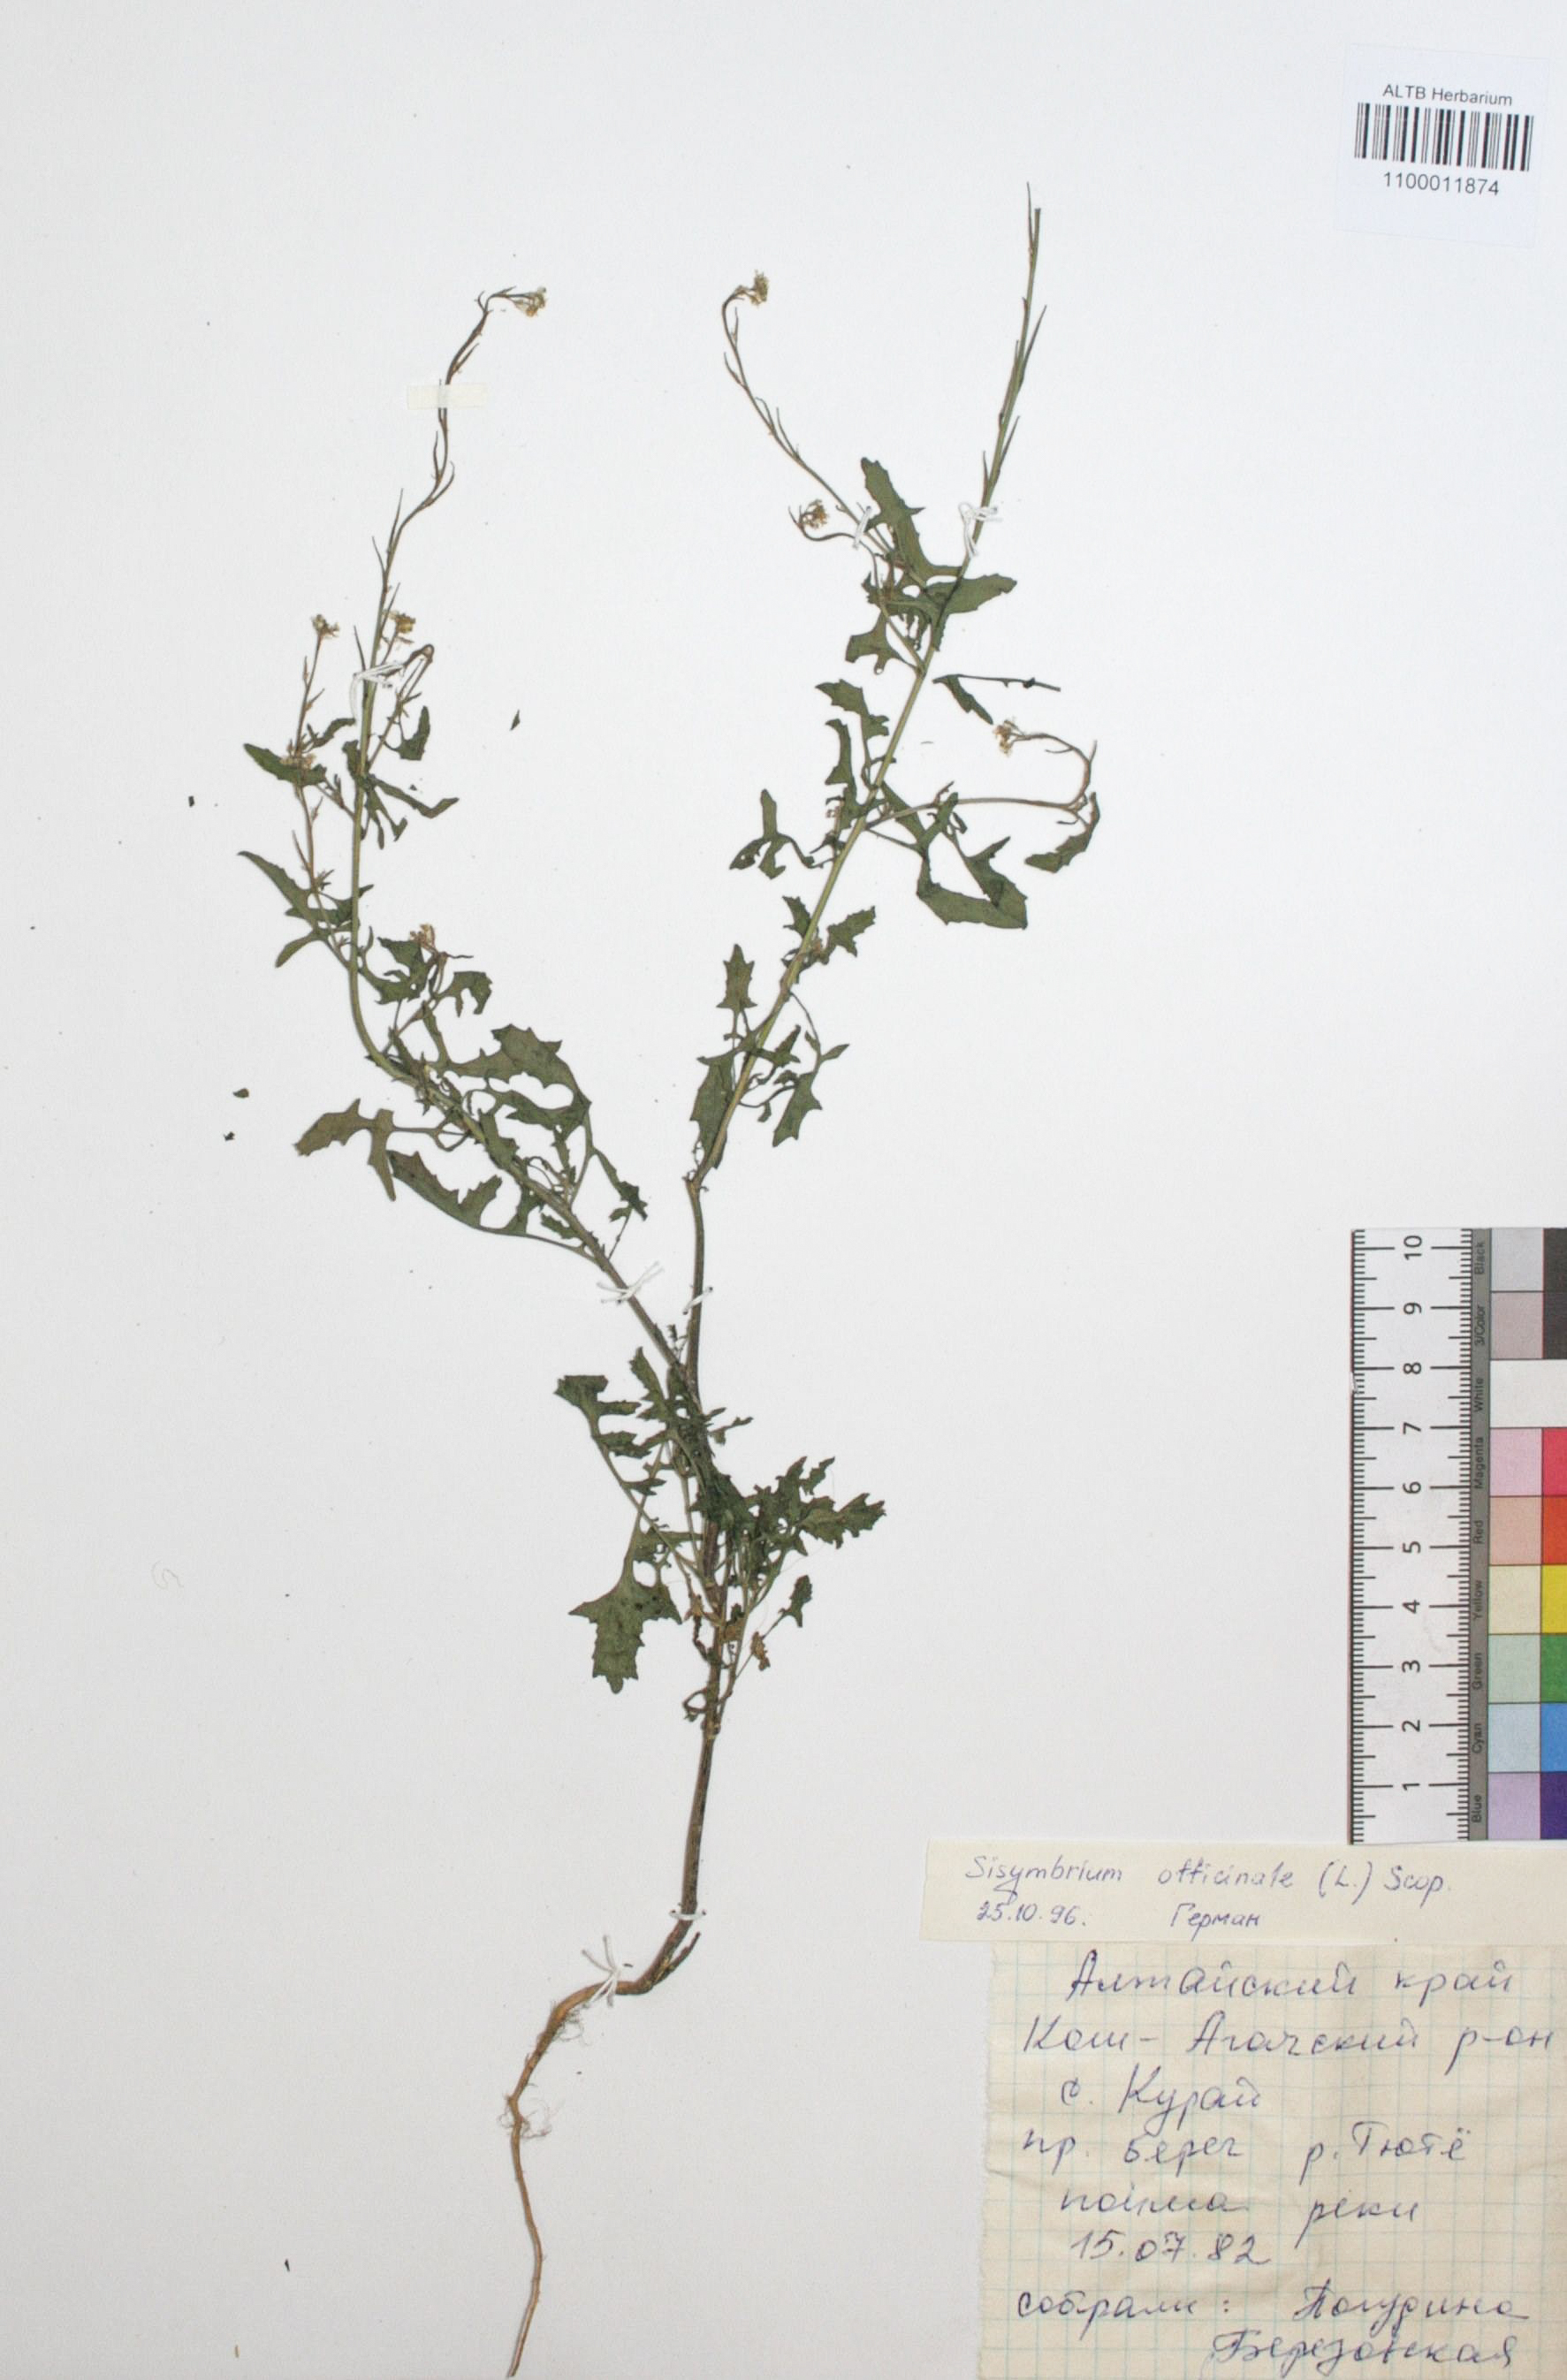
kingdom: Plantae
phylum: Tracheophyta
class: Magnoliopsida
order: Brassicales
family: Brassicaceae
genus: Sisymbrium
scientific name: Sisymbrium officinale
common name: Hedge mustard
